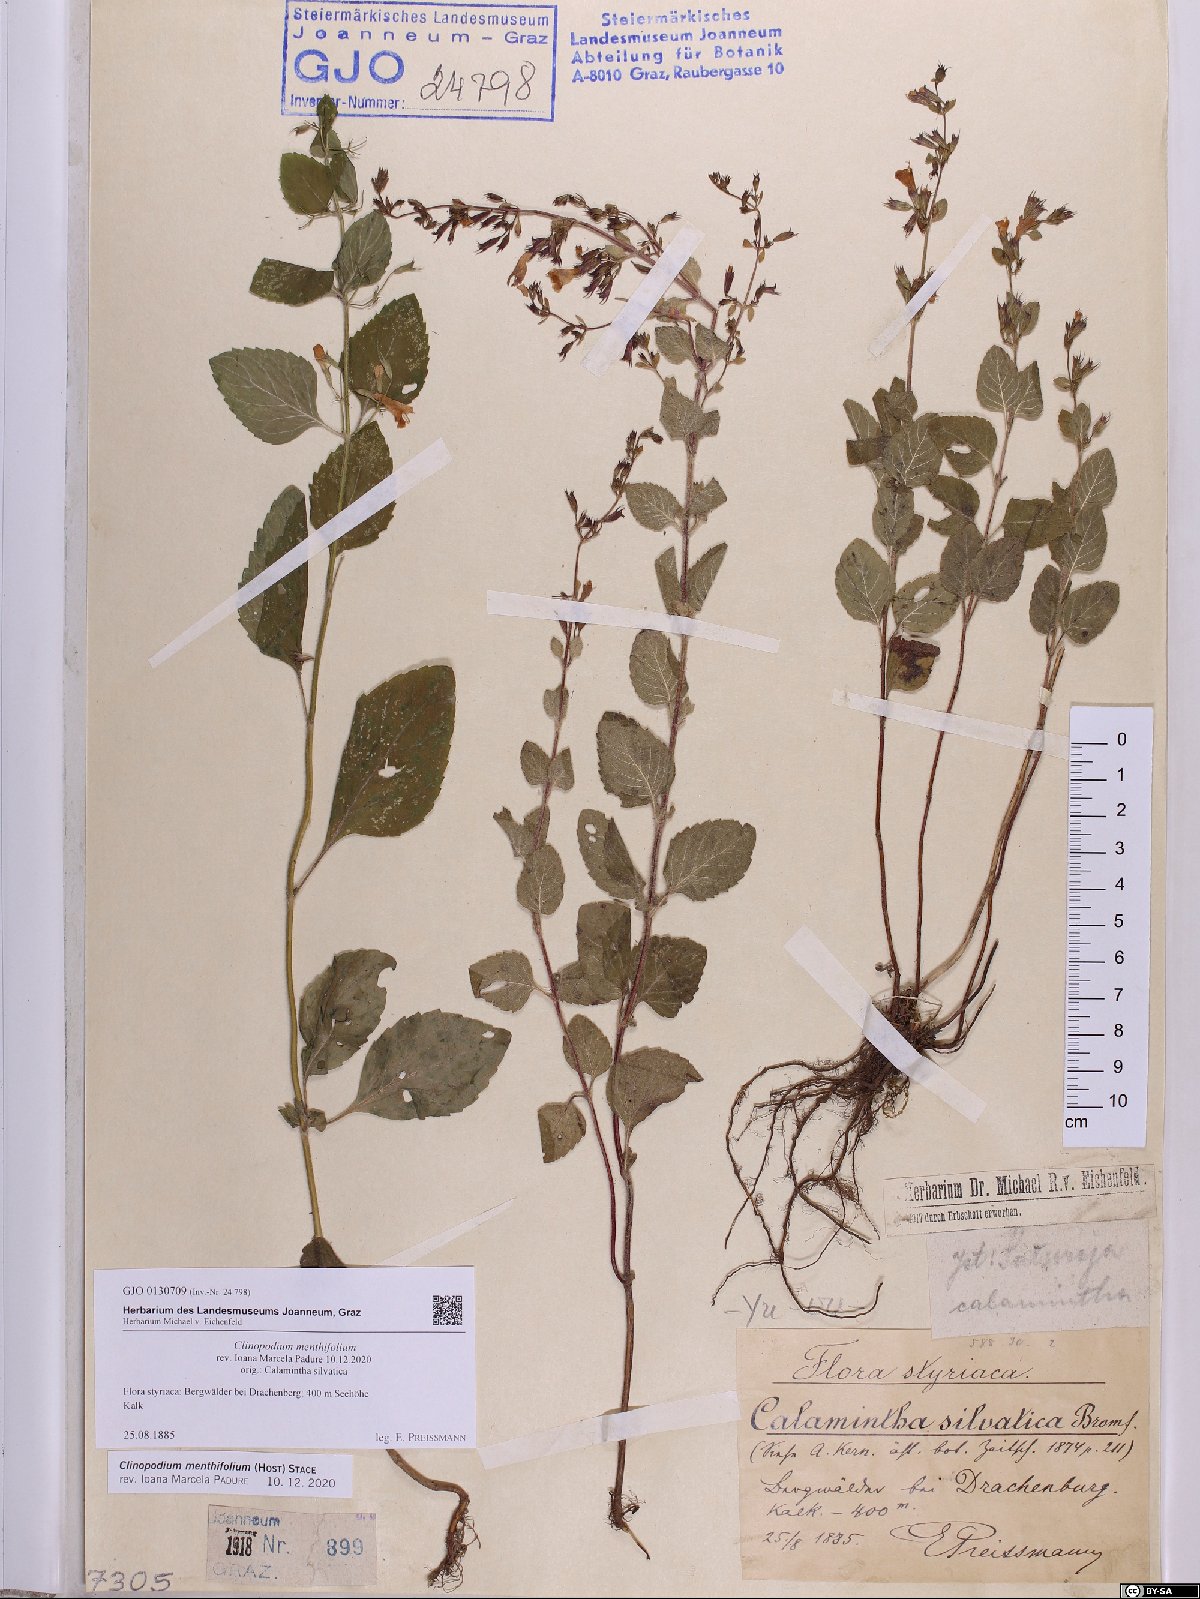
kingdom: Plantae
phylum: Tracheophyta
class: Magnoliopsida
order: Lamiales
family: Lamiaceae
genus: Clinopodium
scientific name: Clinopodium menthifolium
